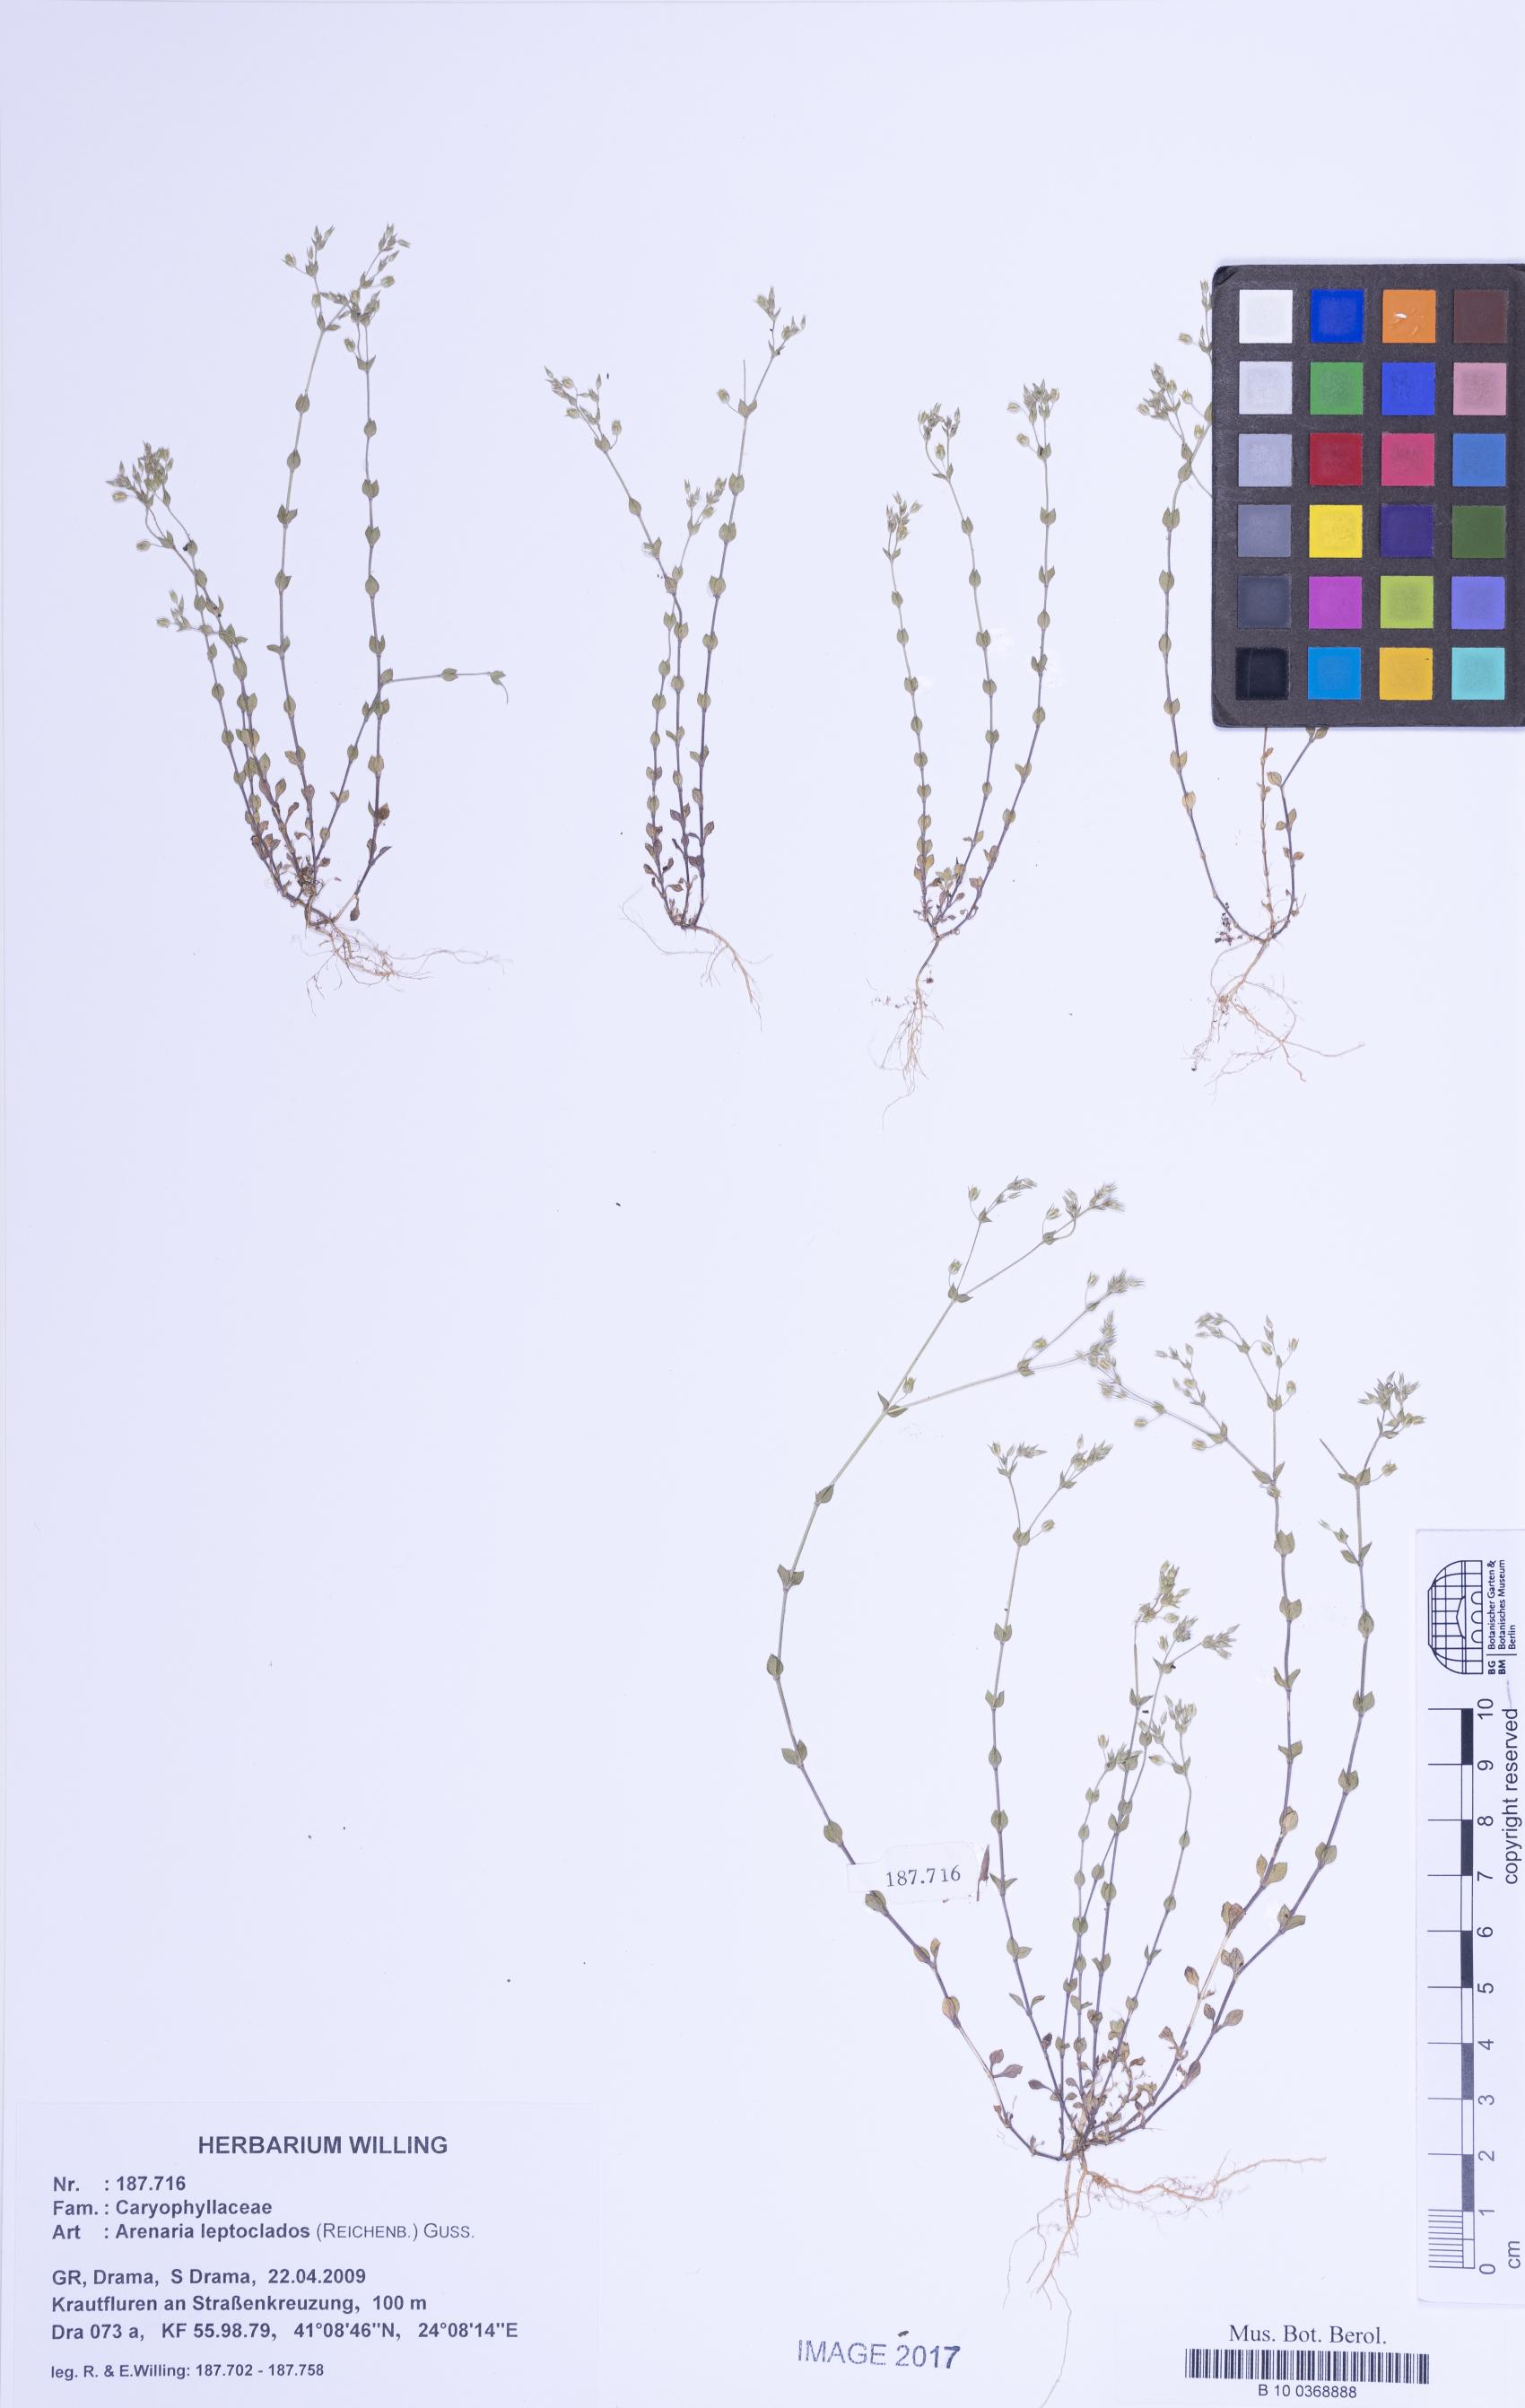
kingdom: Plantae
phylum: Tracheophyta
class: Magnoliopsida
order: Caryophyllales
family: Caryophyllaceae
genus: Arenaria
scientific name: Arenaria leptoclados
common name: Thyme-leaved sandwort
